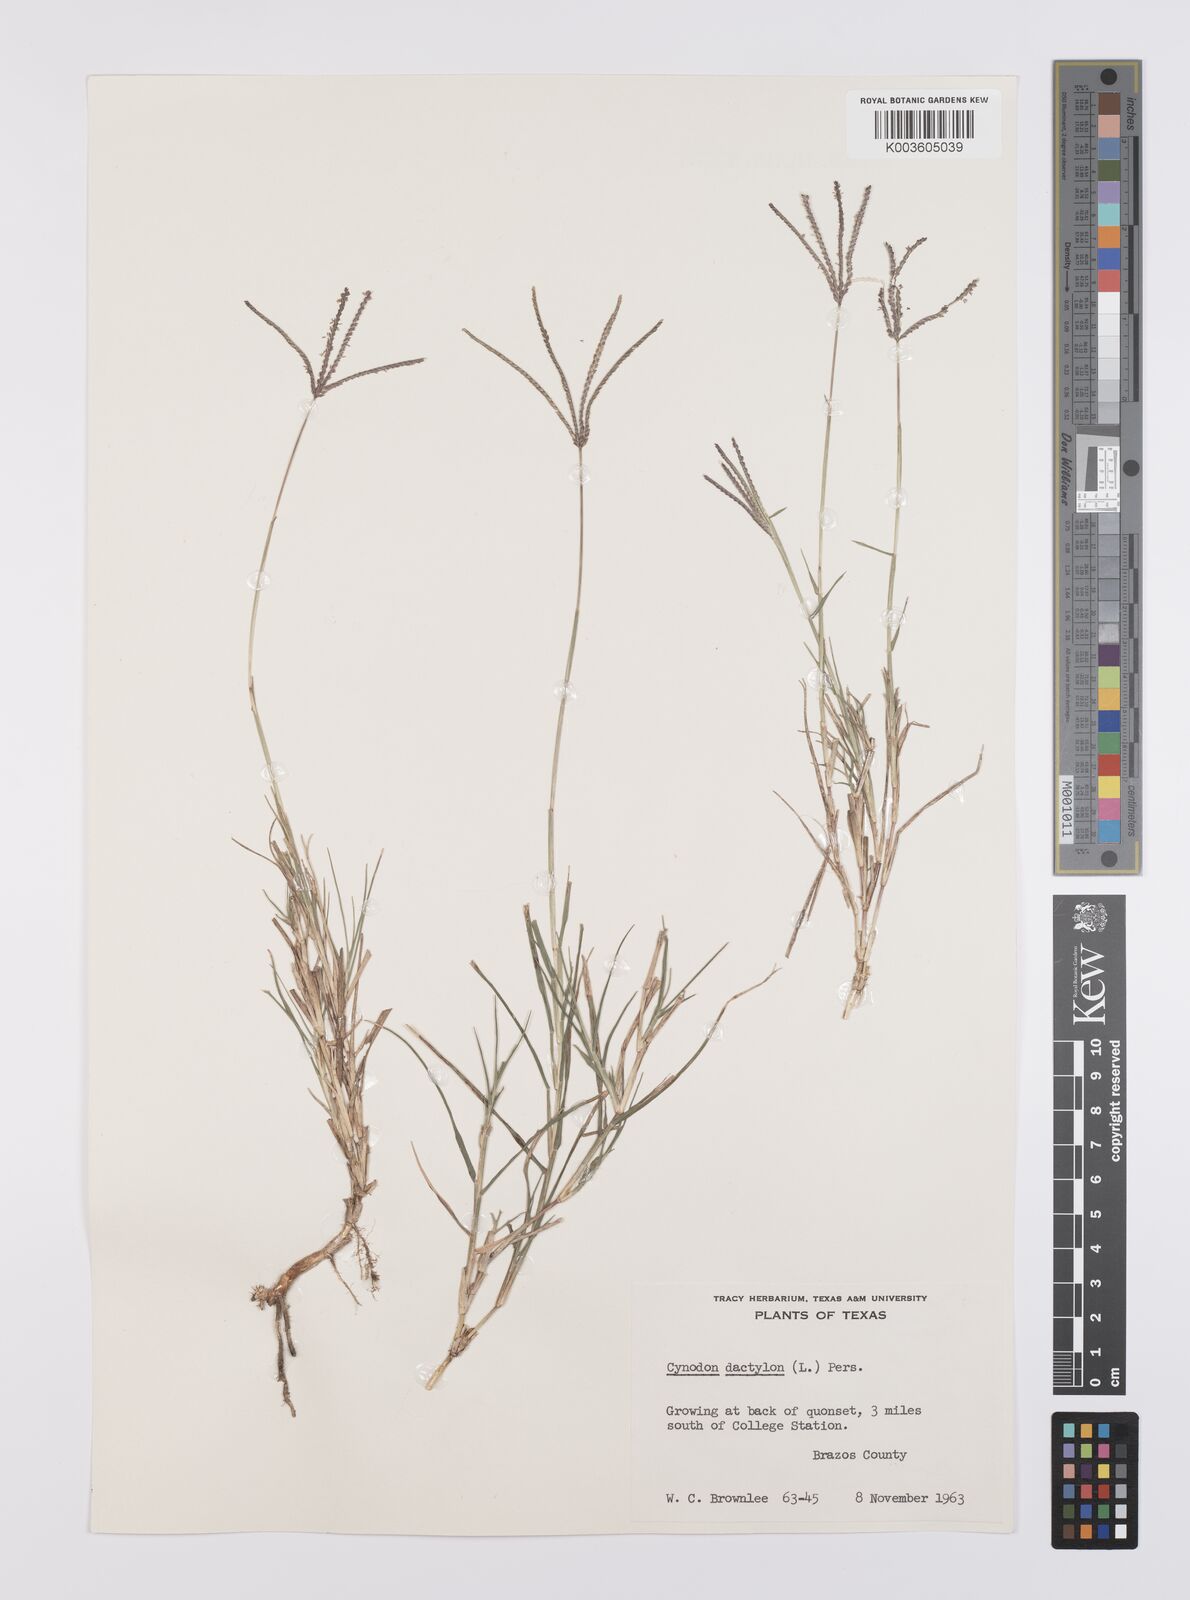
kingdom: Plantae
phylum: Tracheophyta
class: Liliopsida
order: Poales
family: Poaceae
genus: Cynodon
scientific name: Cynodon dactylon
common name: Bermuda grass
